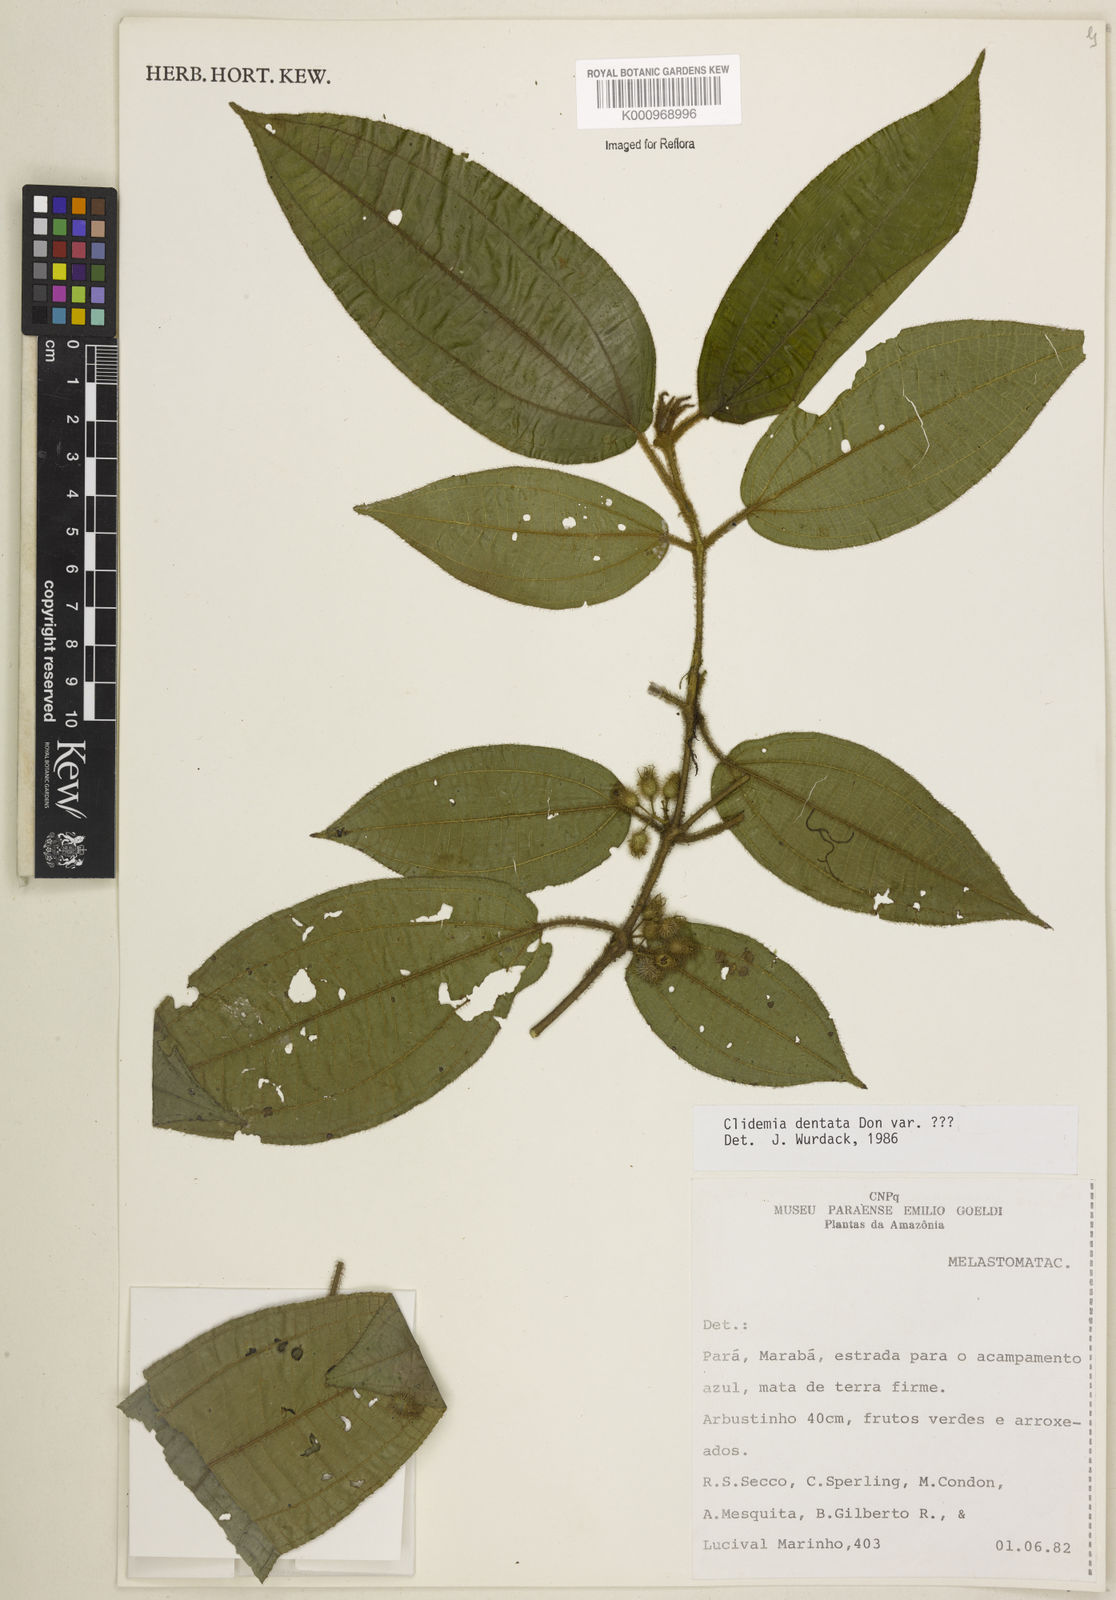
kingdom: Plantae
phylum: Tracheophyta
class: Magnoliopsida
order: Myrtales
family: Melastomataceae
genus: Miconia
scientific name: Miconia dentata
